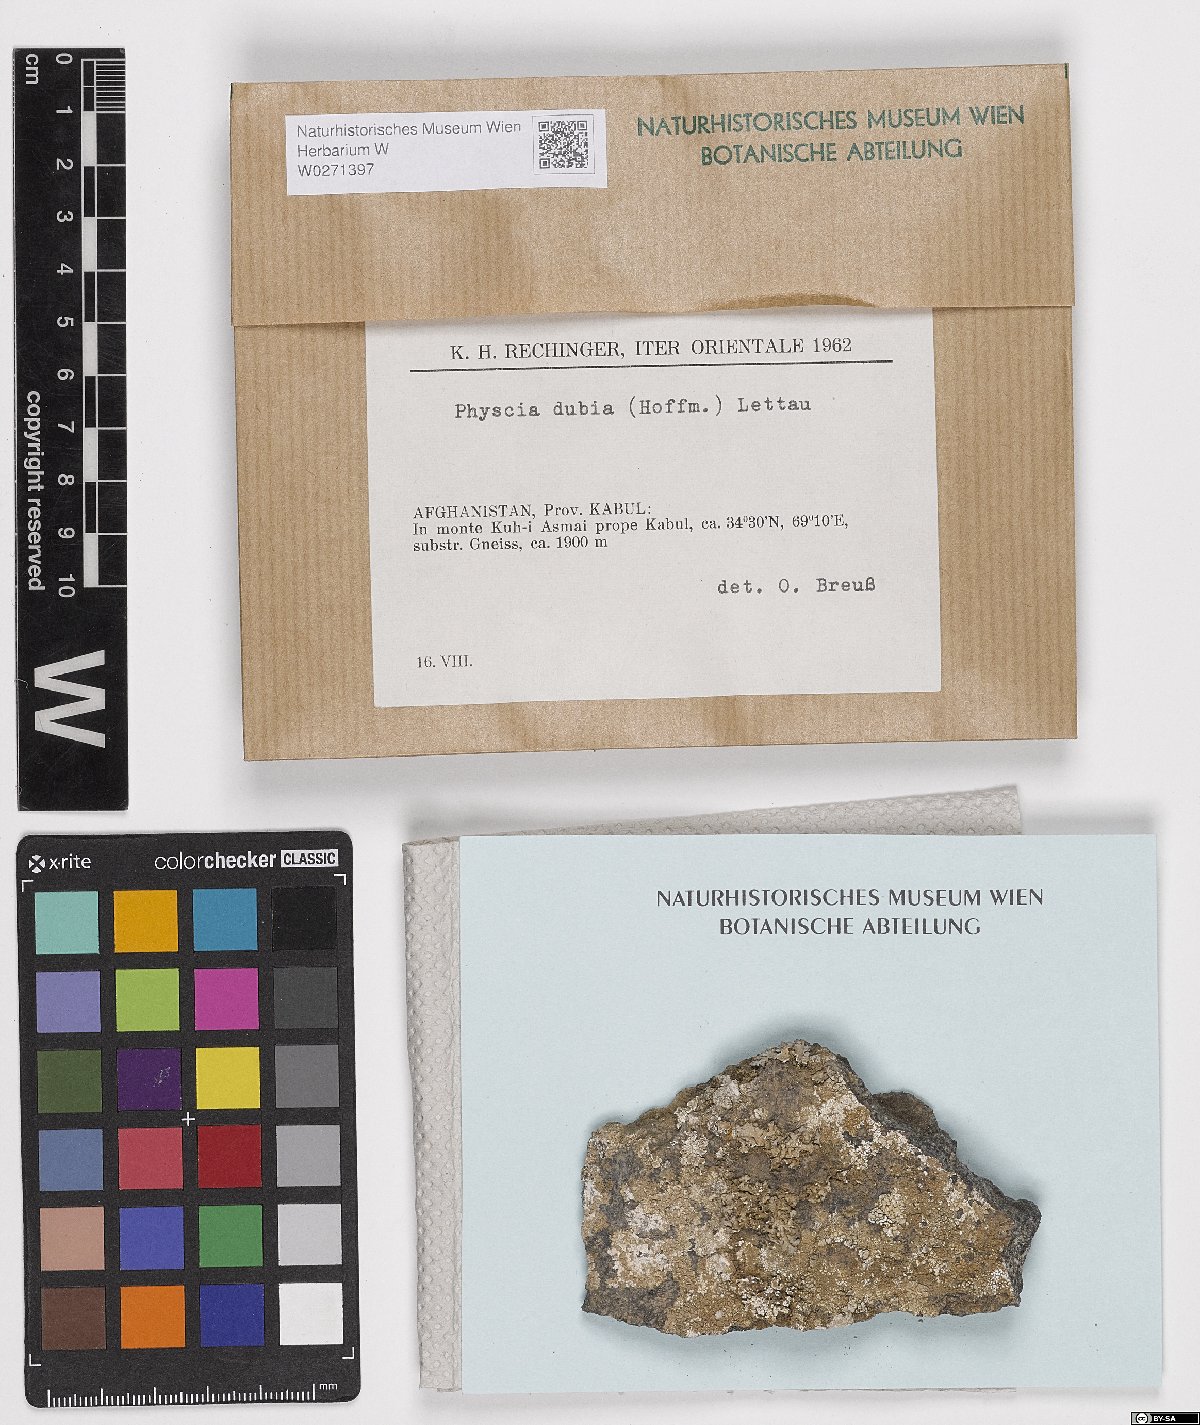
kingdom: Fungi
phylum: Ascomycota
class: Lecanoromycetes
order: Caliciales
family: Physciaceae
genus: Physcia
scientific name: Physcia dubia
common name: Powder-tipped rosette lichen
